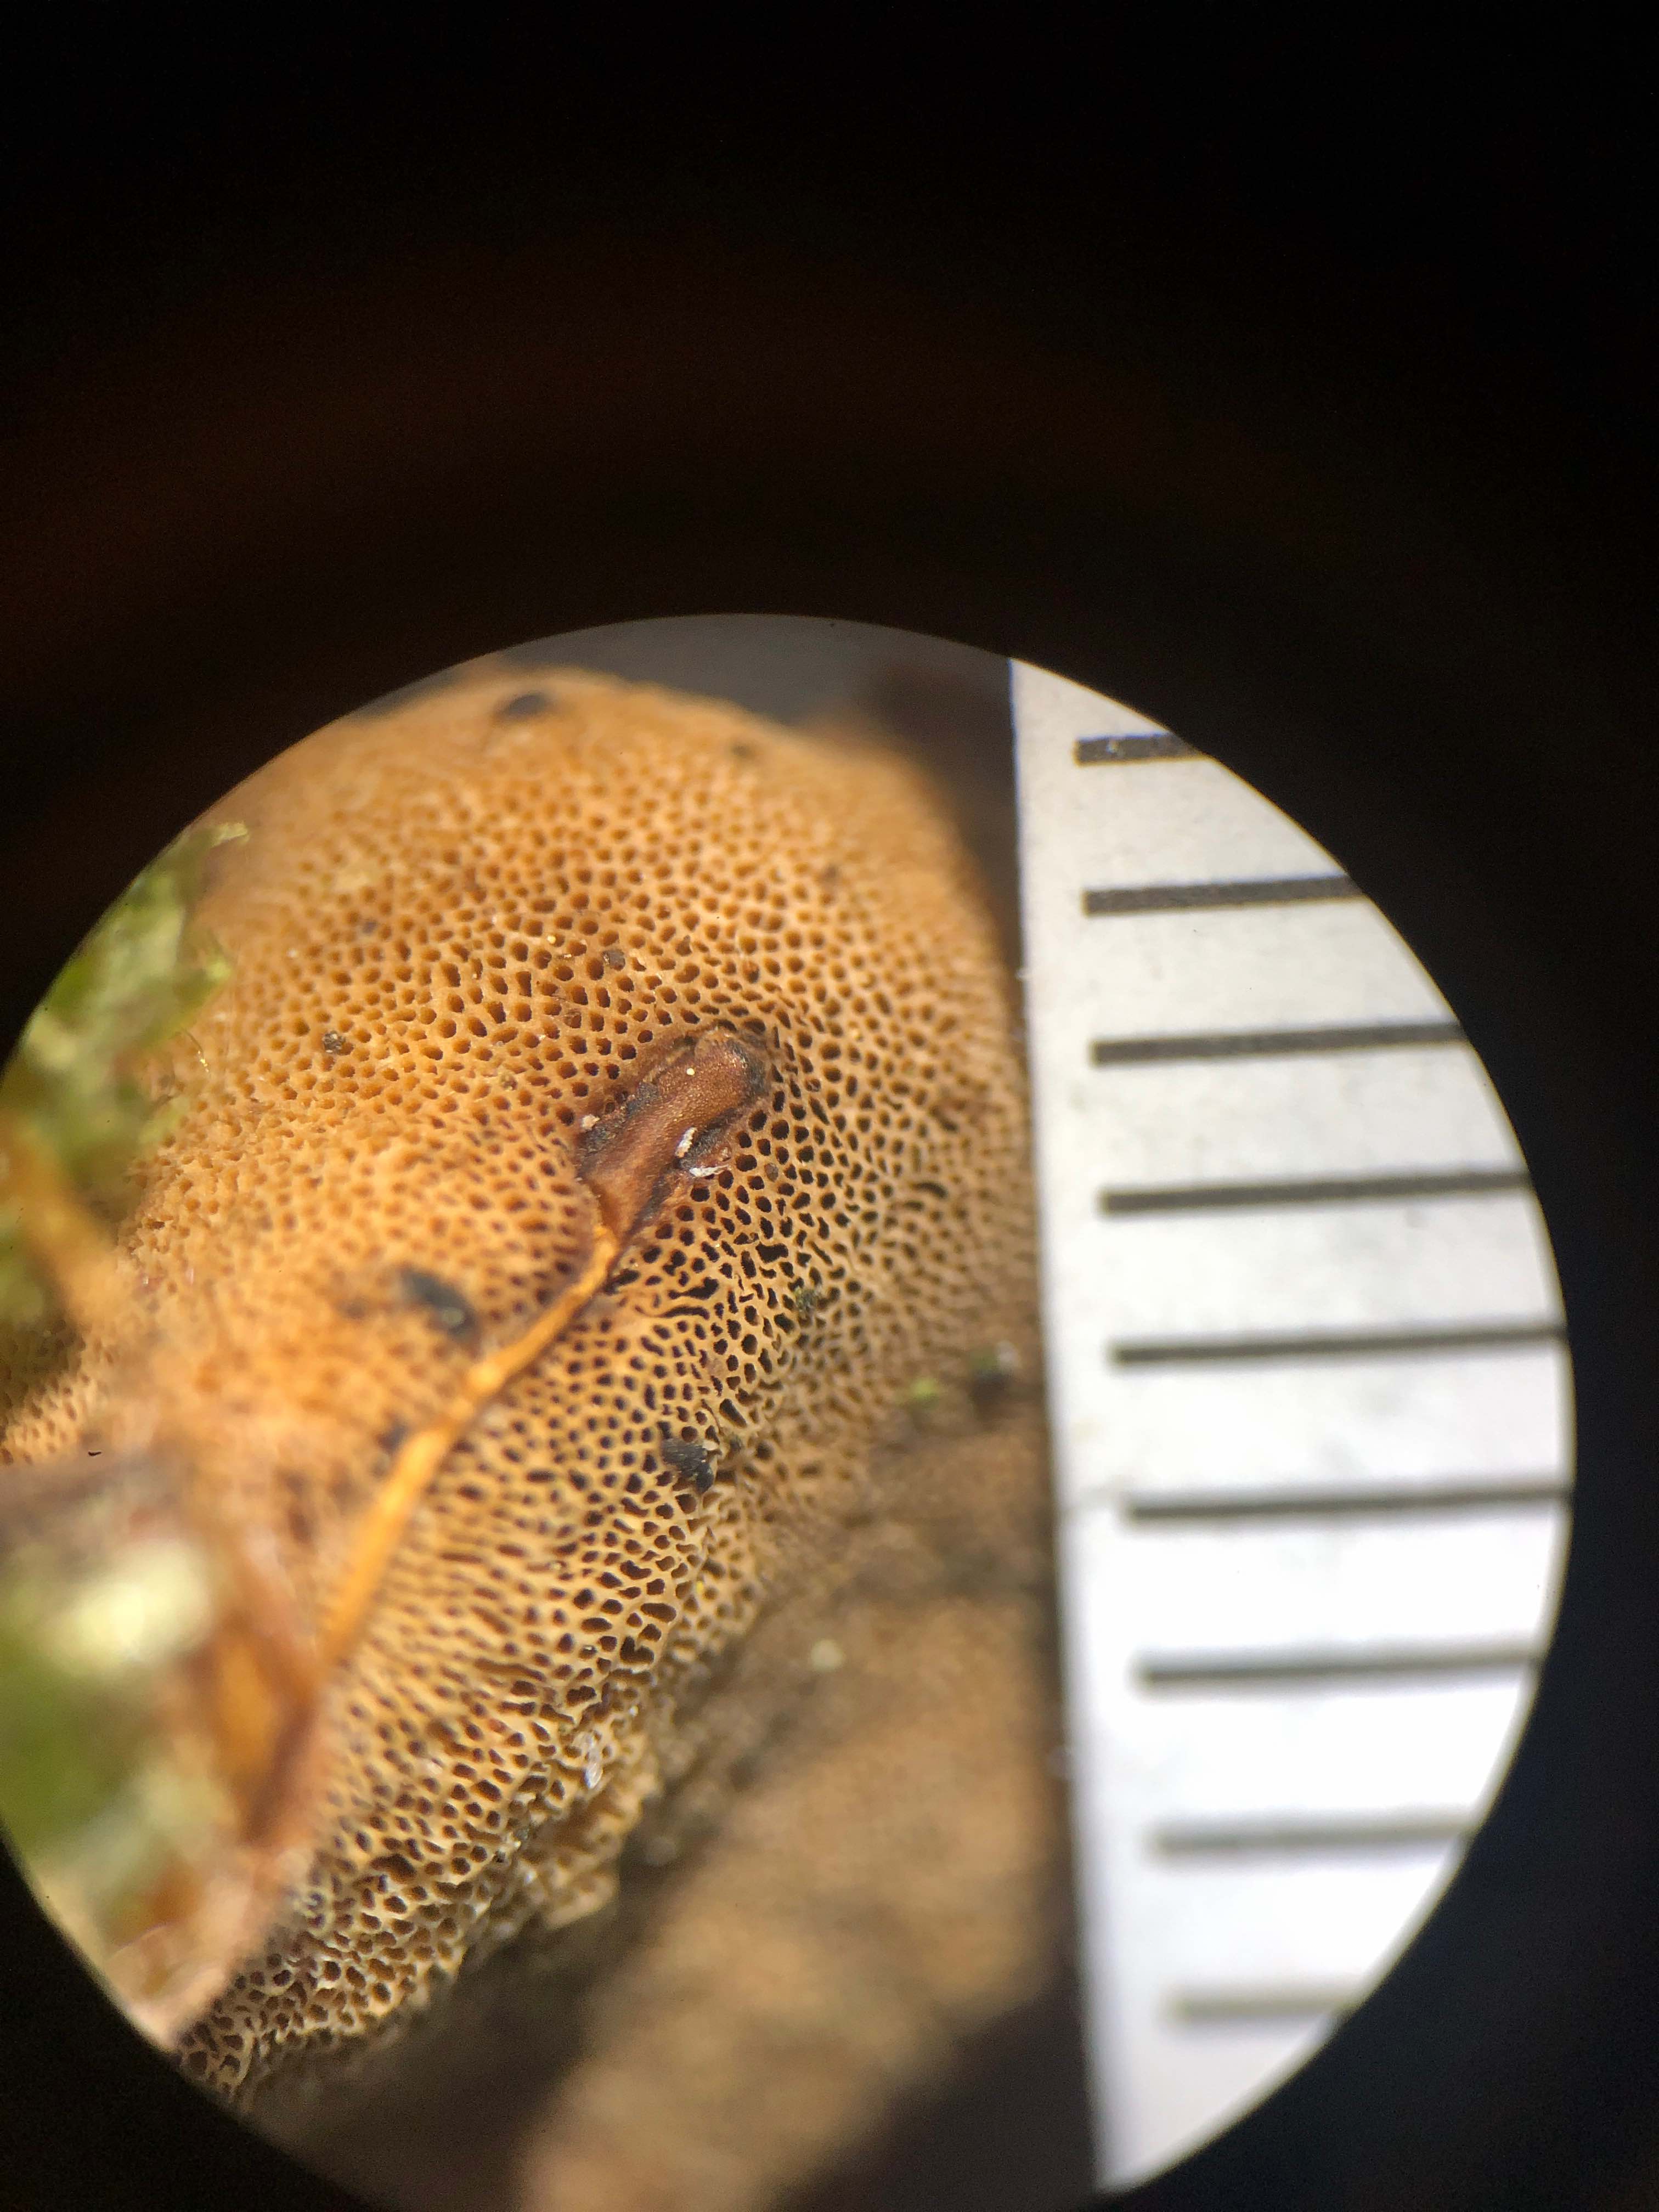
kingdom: Fungi
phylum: Basidiomycota
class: Agaricomycetes
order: Polyporales
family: Polyporaceae
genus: Picipes
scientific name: Picipes tubaeformis
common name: trompet-stilkporesvamp
